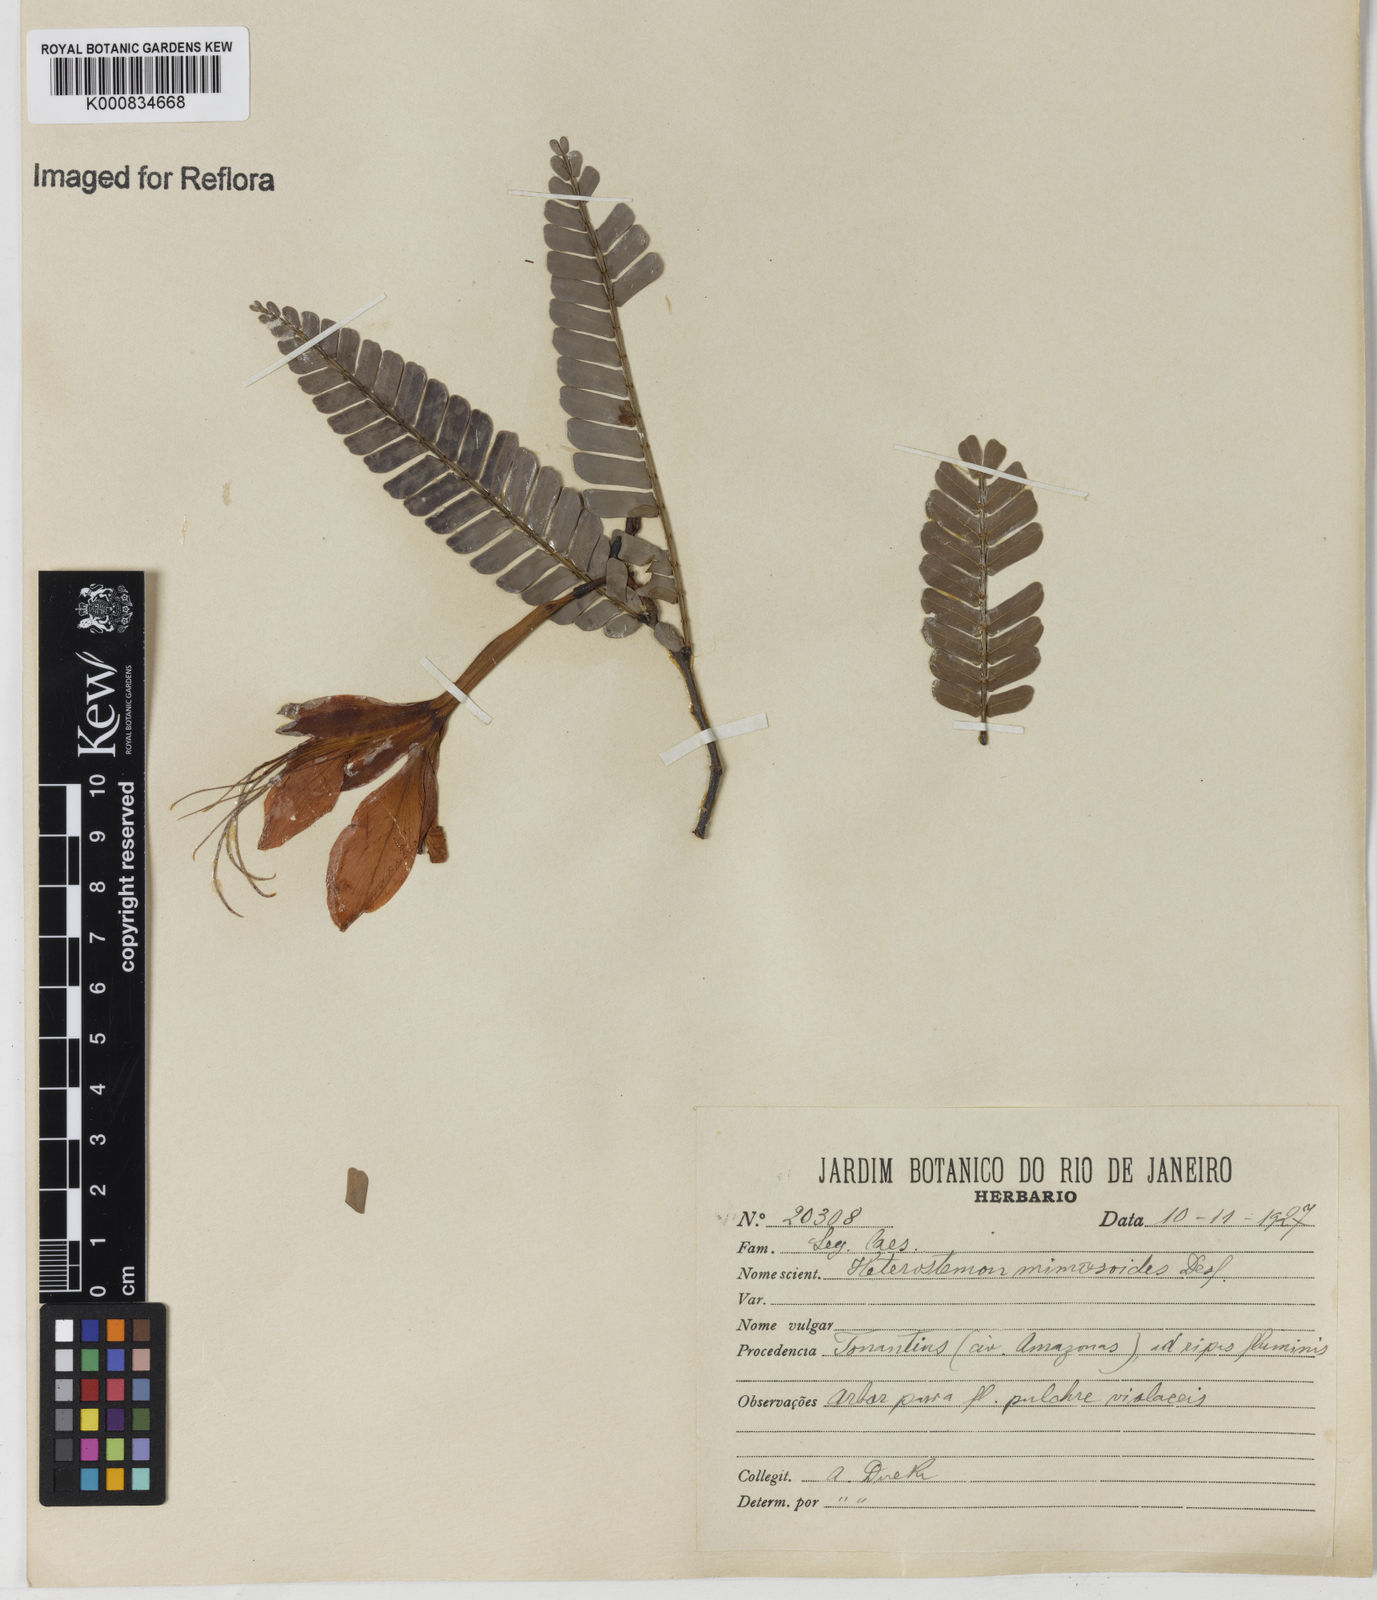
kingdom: Plantae
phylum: Tracheophyta
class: Magnoliopsida
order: Fabales
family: Fabaceae
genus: Heterostemon
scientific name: Heterostemon mimosoides
